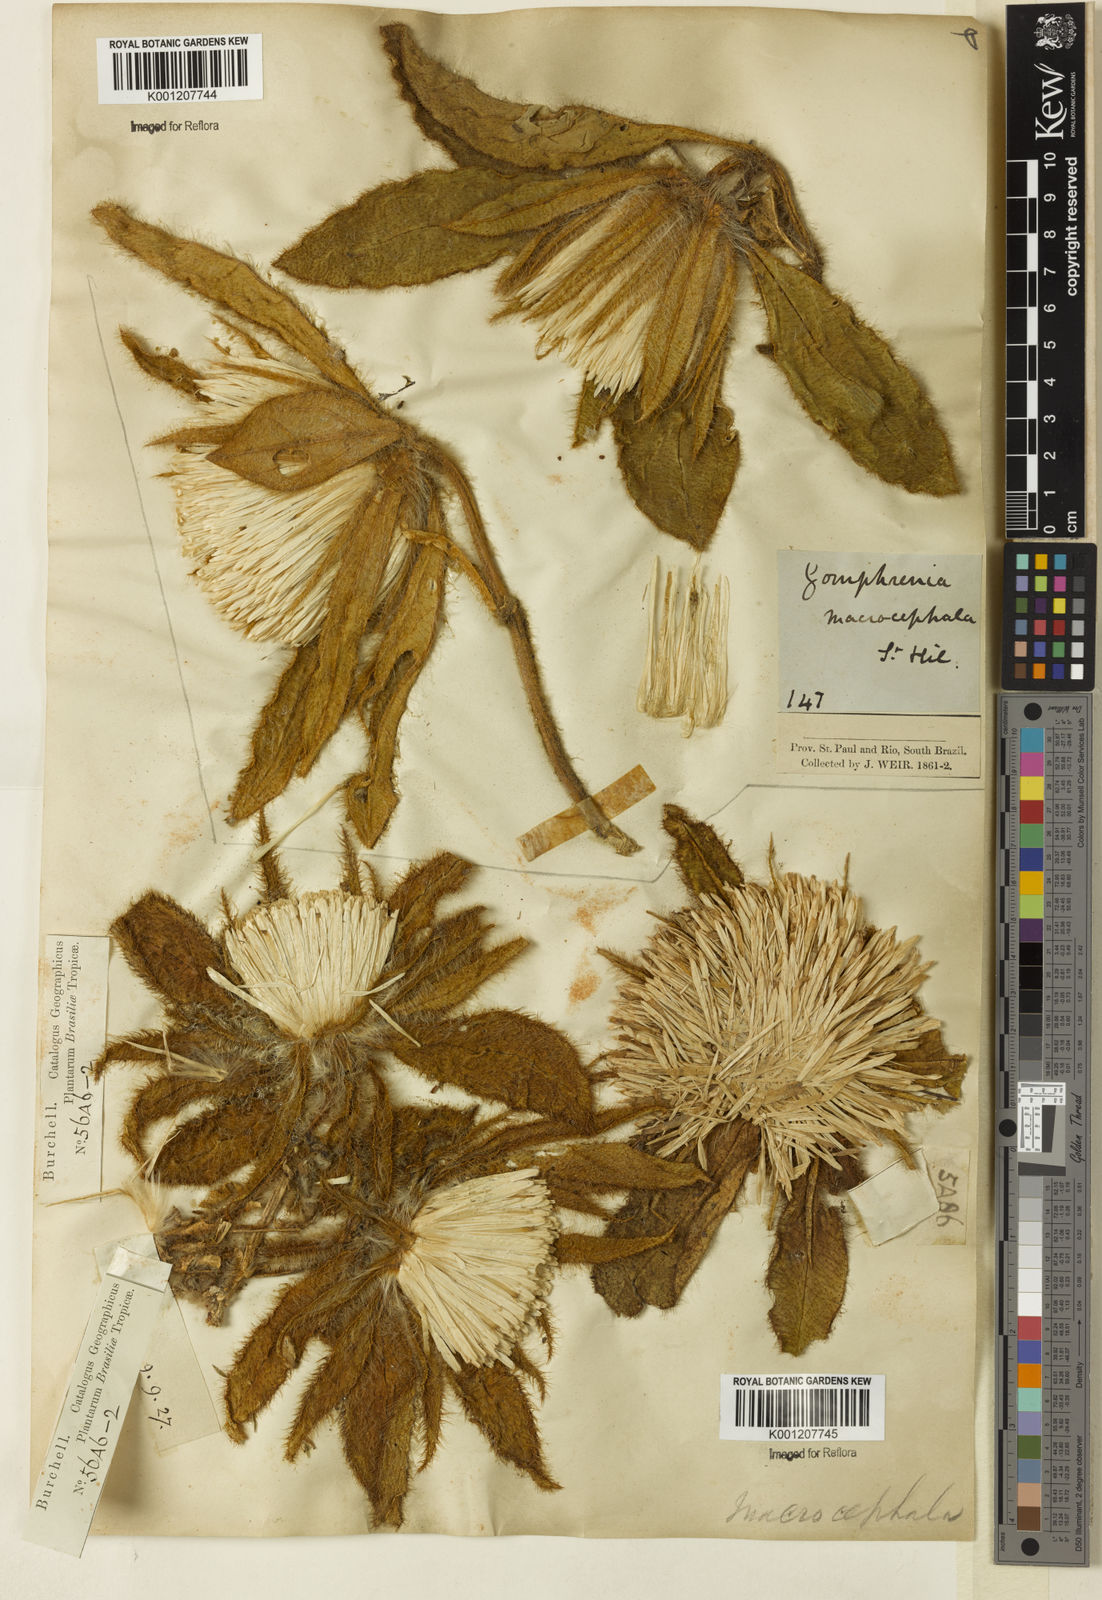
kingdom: Plantae
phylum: Tracheophyta
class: Magnoliopsida
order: Caryophyllales
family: Amaranthaceae
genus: Gomphrena
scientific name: Gomphrena macrocephala
